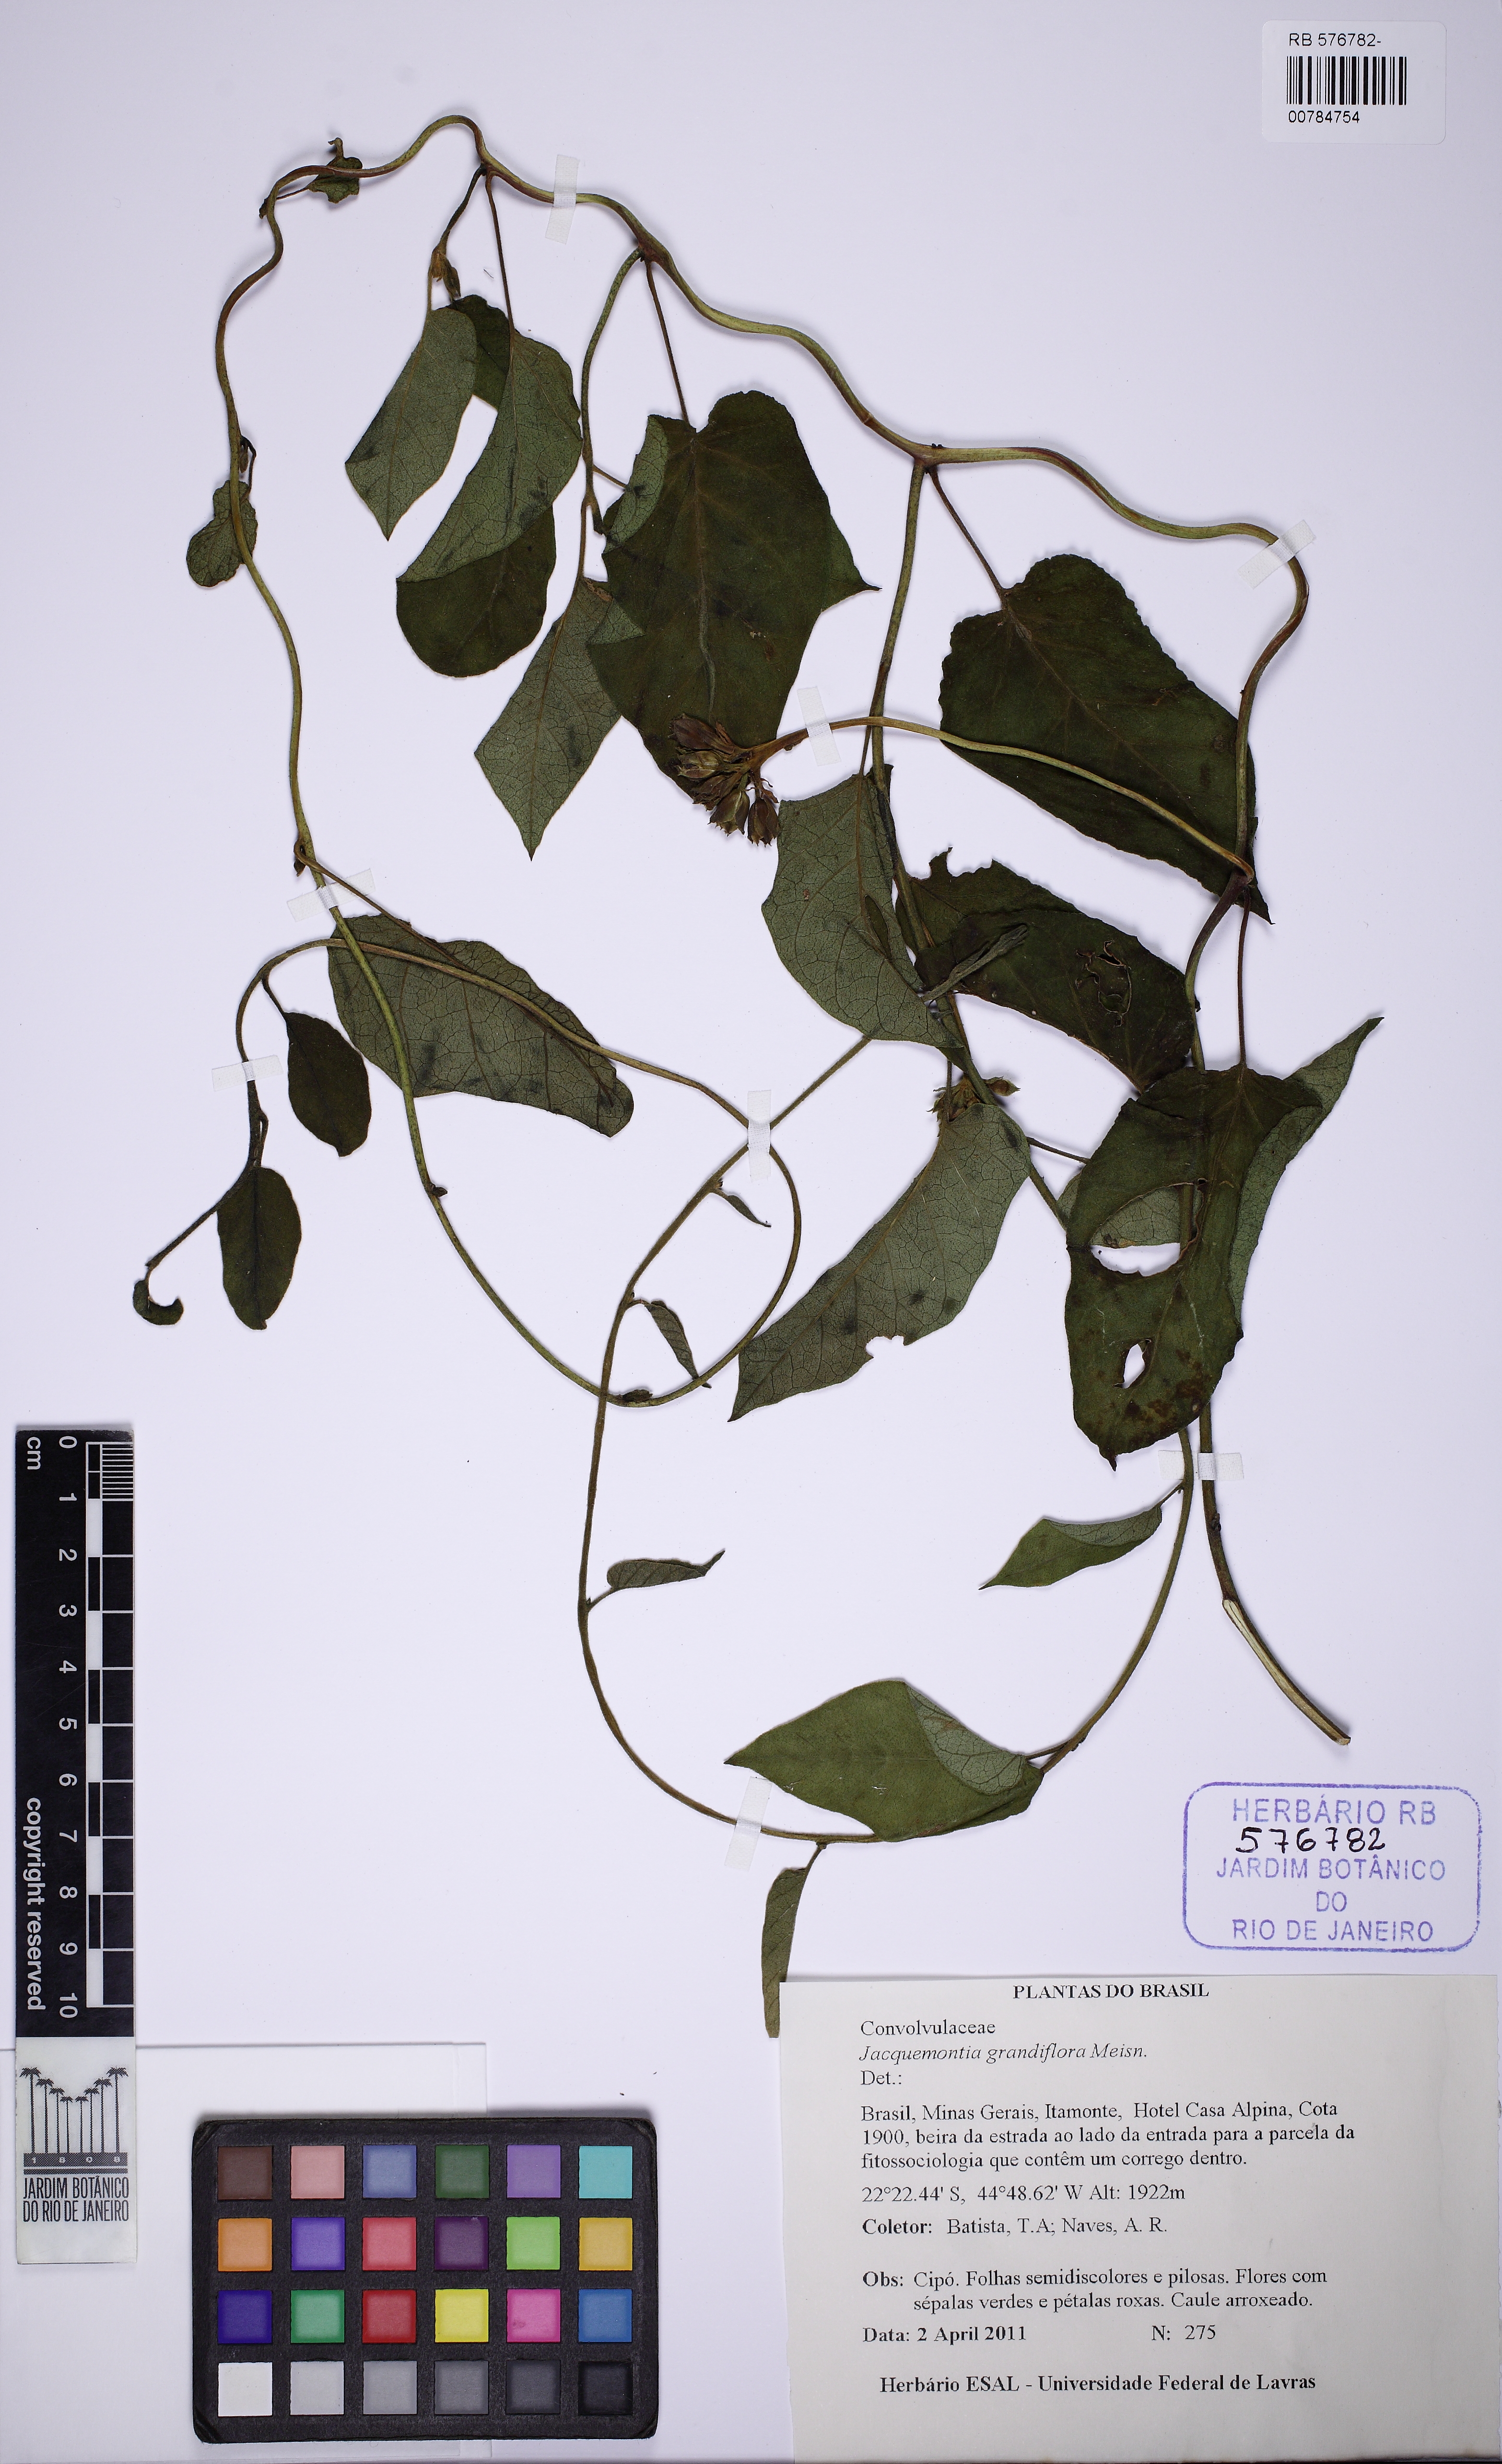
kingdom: Plantae
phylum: Tracheophyta
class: Magnoliopsida
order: Solanales
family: Convolvulaceae
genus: Jacquemontia
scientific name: Jacquemontia velloziana
